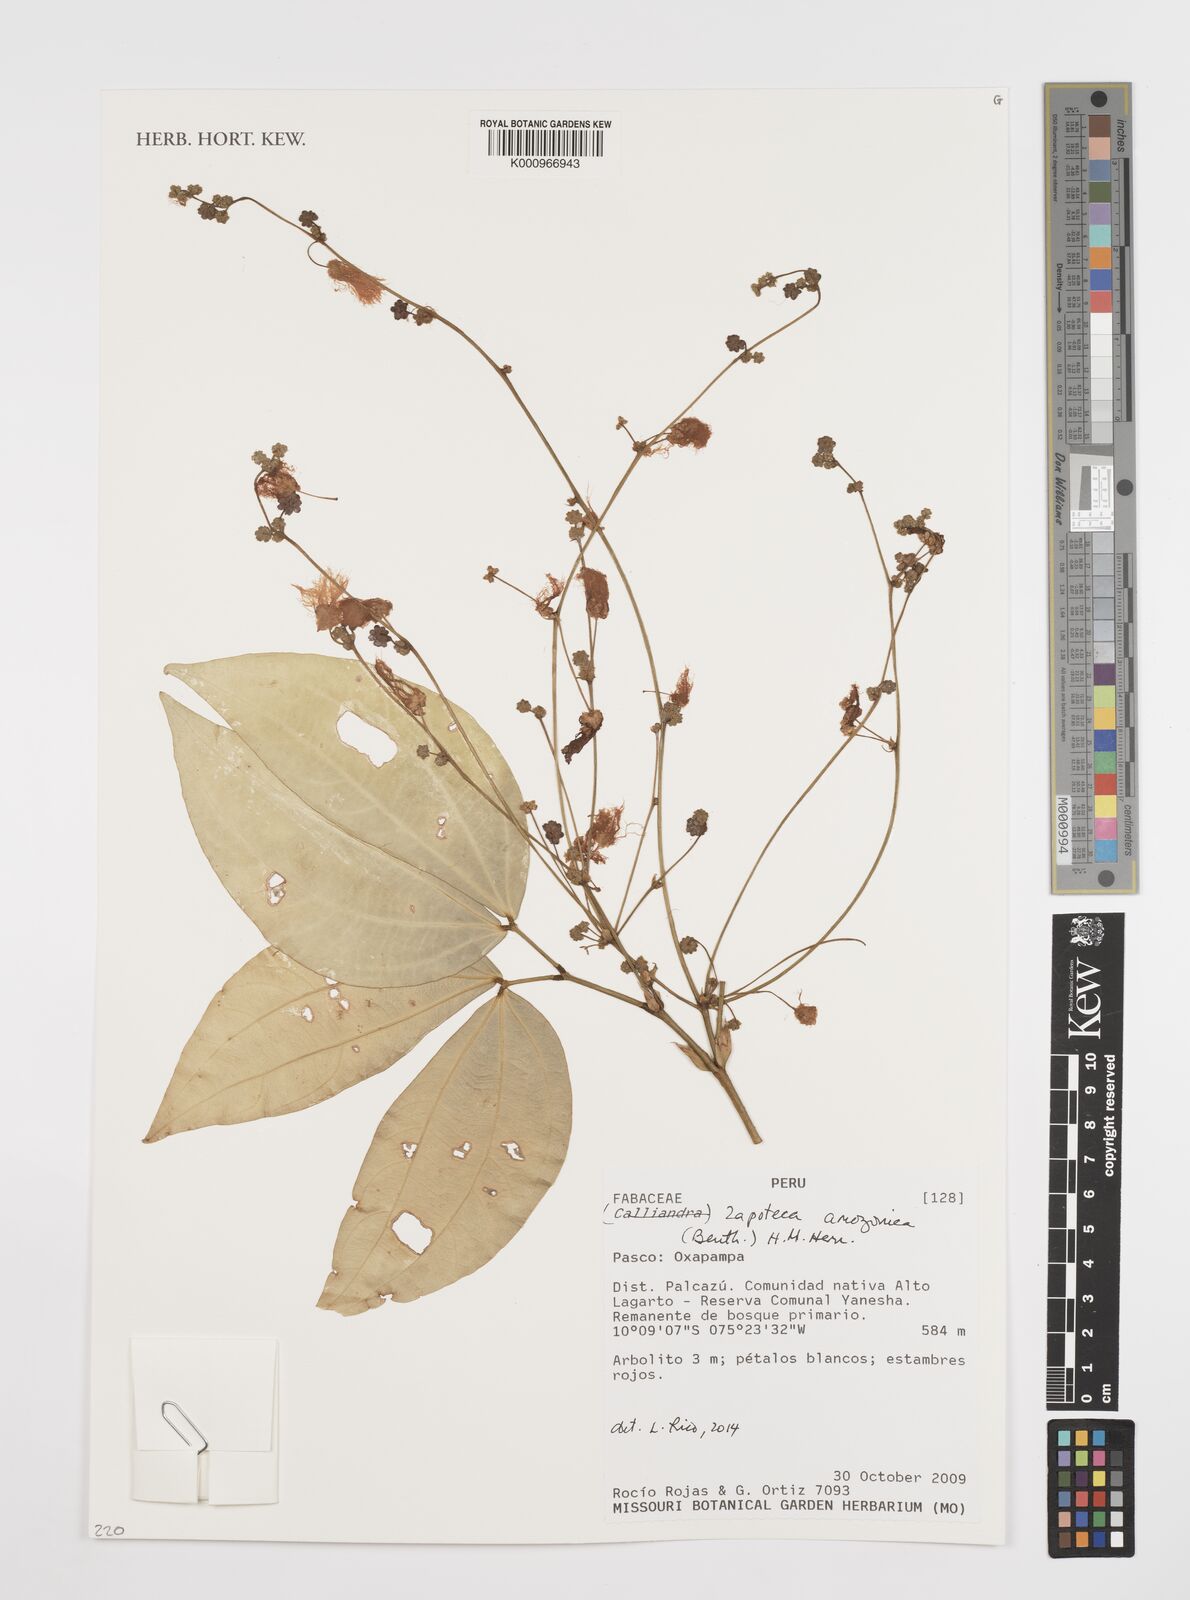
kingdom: Plantae
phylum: Tracheophyta
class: Magnoliopsida
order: Fabales
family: Fabaceae
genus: Zapoteca
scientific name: Zapoteca amazonica
